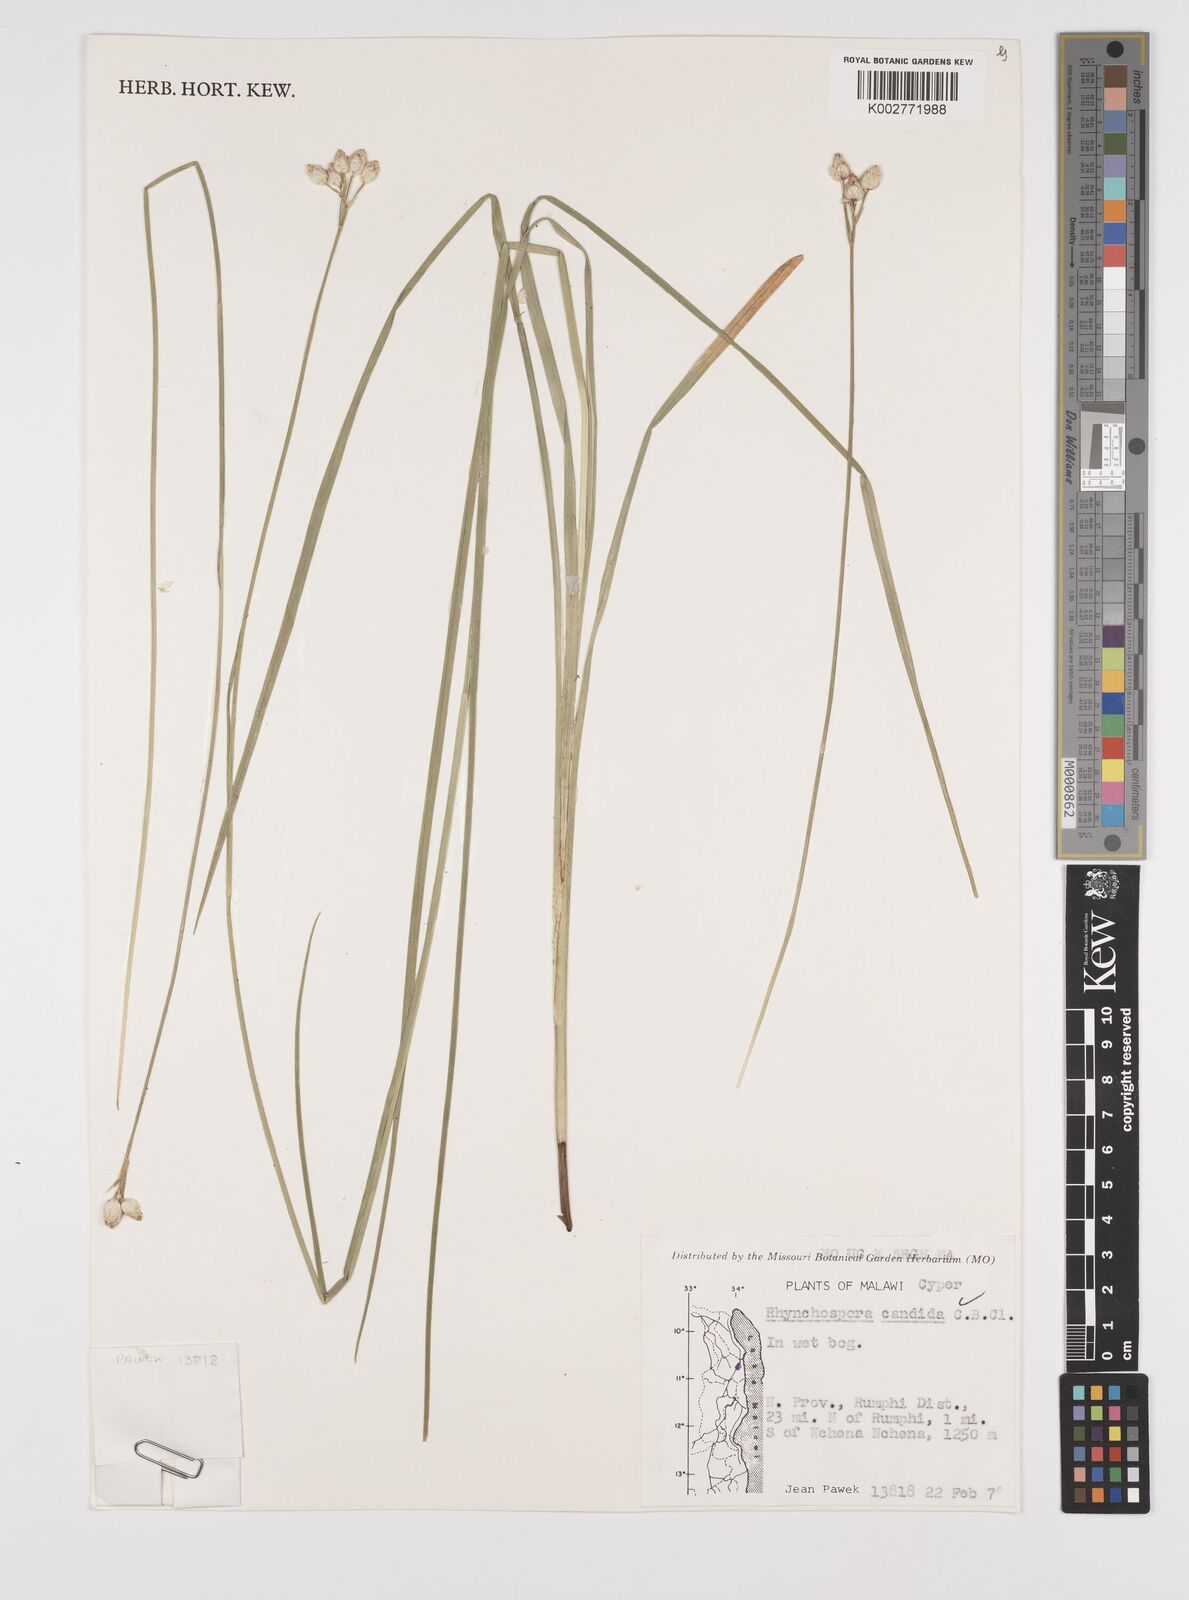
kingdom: Plantae
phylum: Tracheophyta
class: Liliopsida
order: Poales
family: Cyperaceae
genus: Rhynchospora
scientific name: Rhynchospora candida
